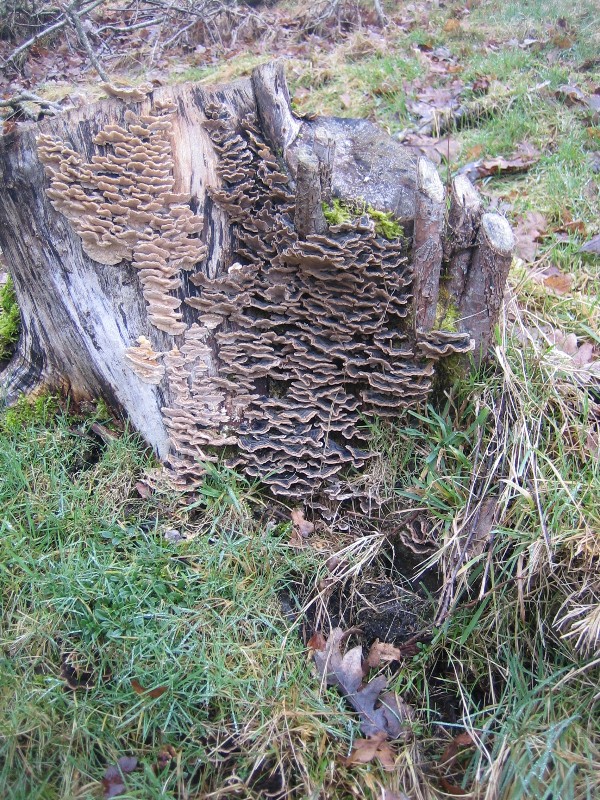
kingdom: Fungi
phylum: Basidiomycota
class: Agaricomycetes
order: Polyporales
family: Polyporaceae
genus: Trametes
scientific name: Trametes versicolor
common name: broget læderporesvamp
